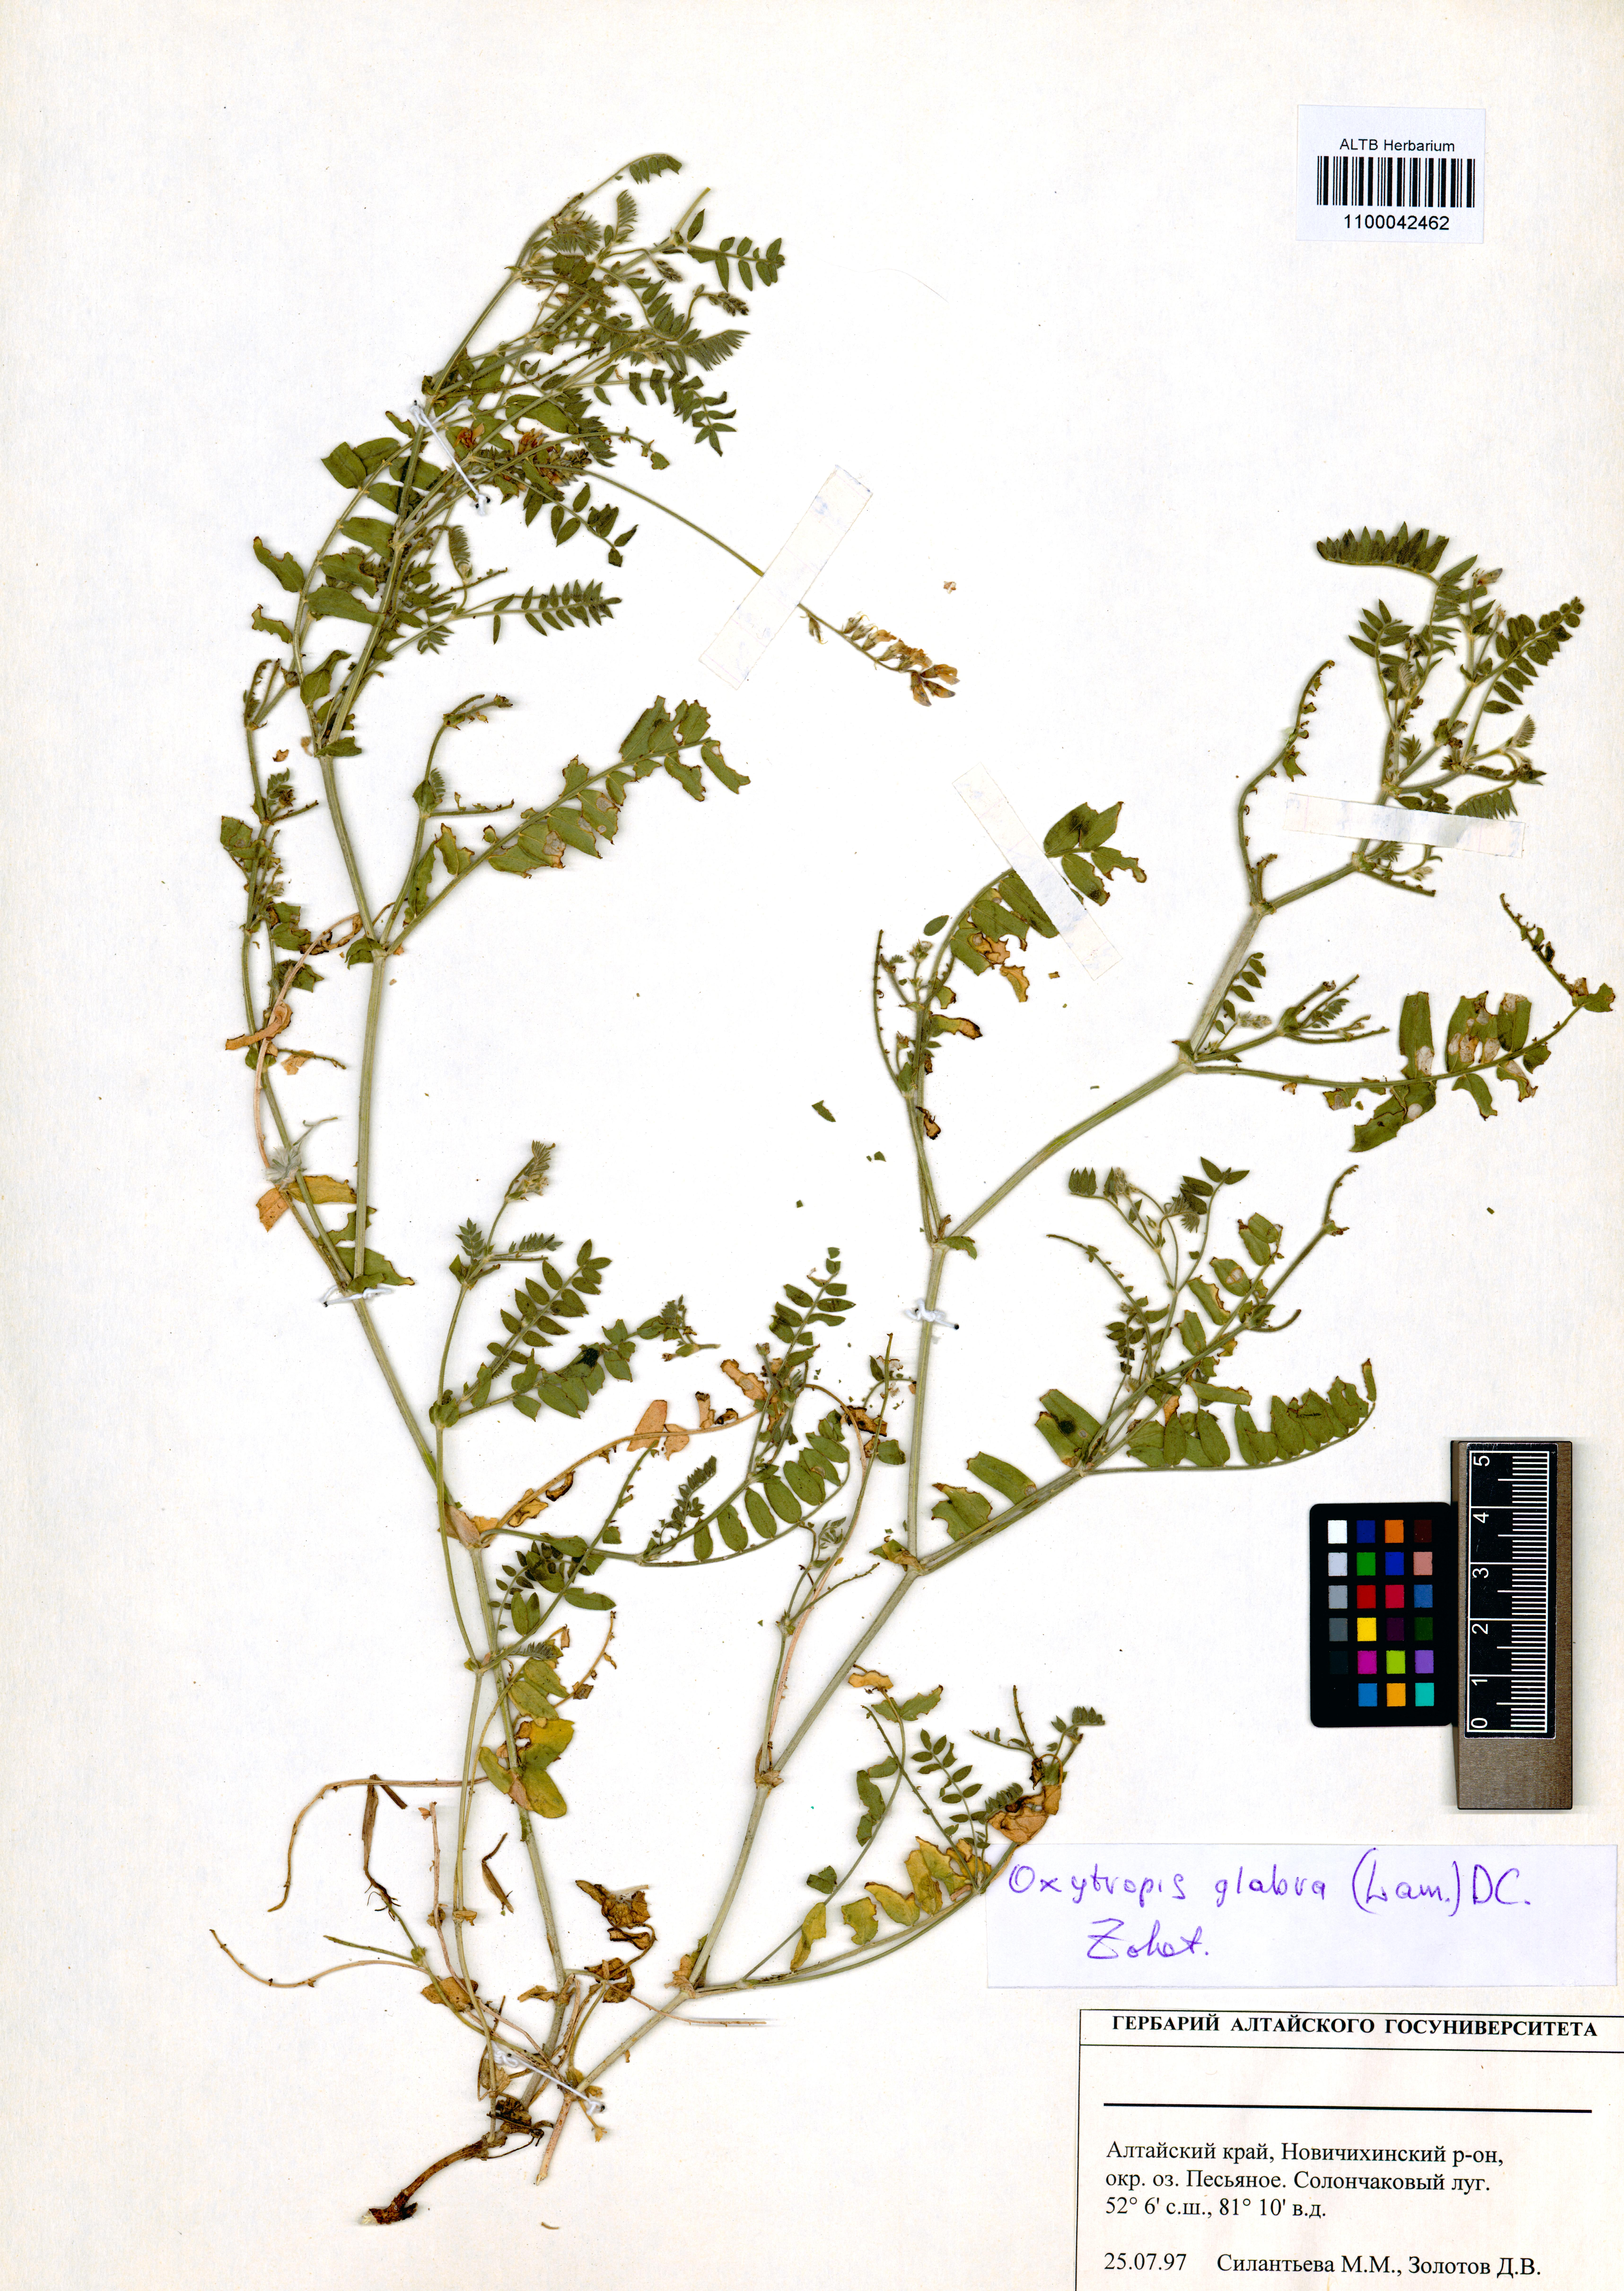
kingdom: Plantae
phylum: Tracheophyta
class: Magnoliopsida
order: Fabales
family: Fabaceae
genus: Oxytropis
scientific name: Oxytropis glabra
